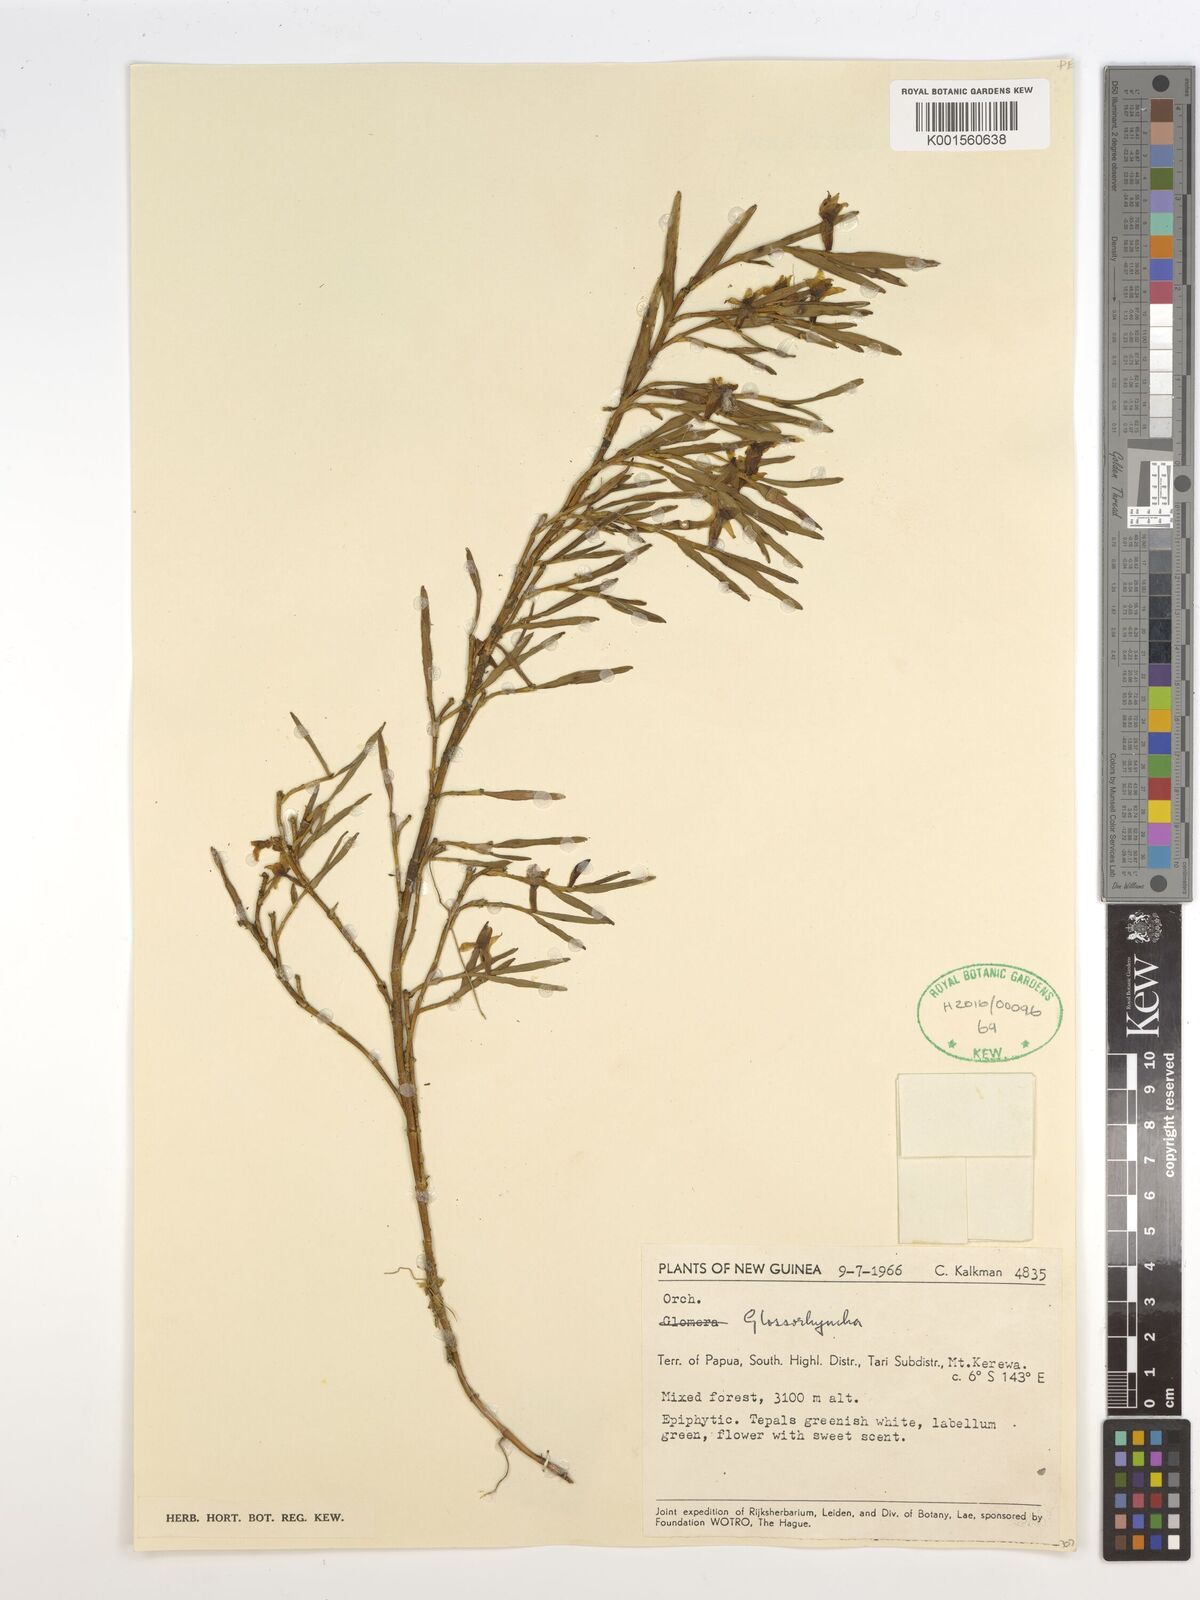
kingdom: Plantae
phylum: Tracheophyta
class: Liliopsida
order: Asparagales
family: Orchidaceae
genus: Glomera
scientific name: Glomera
